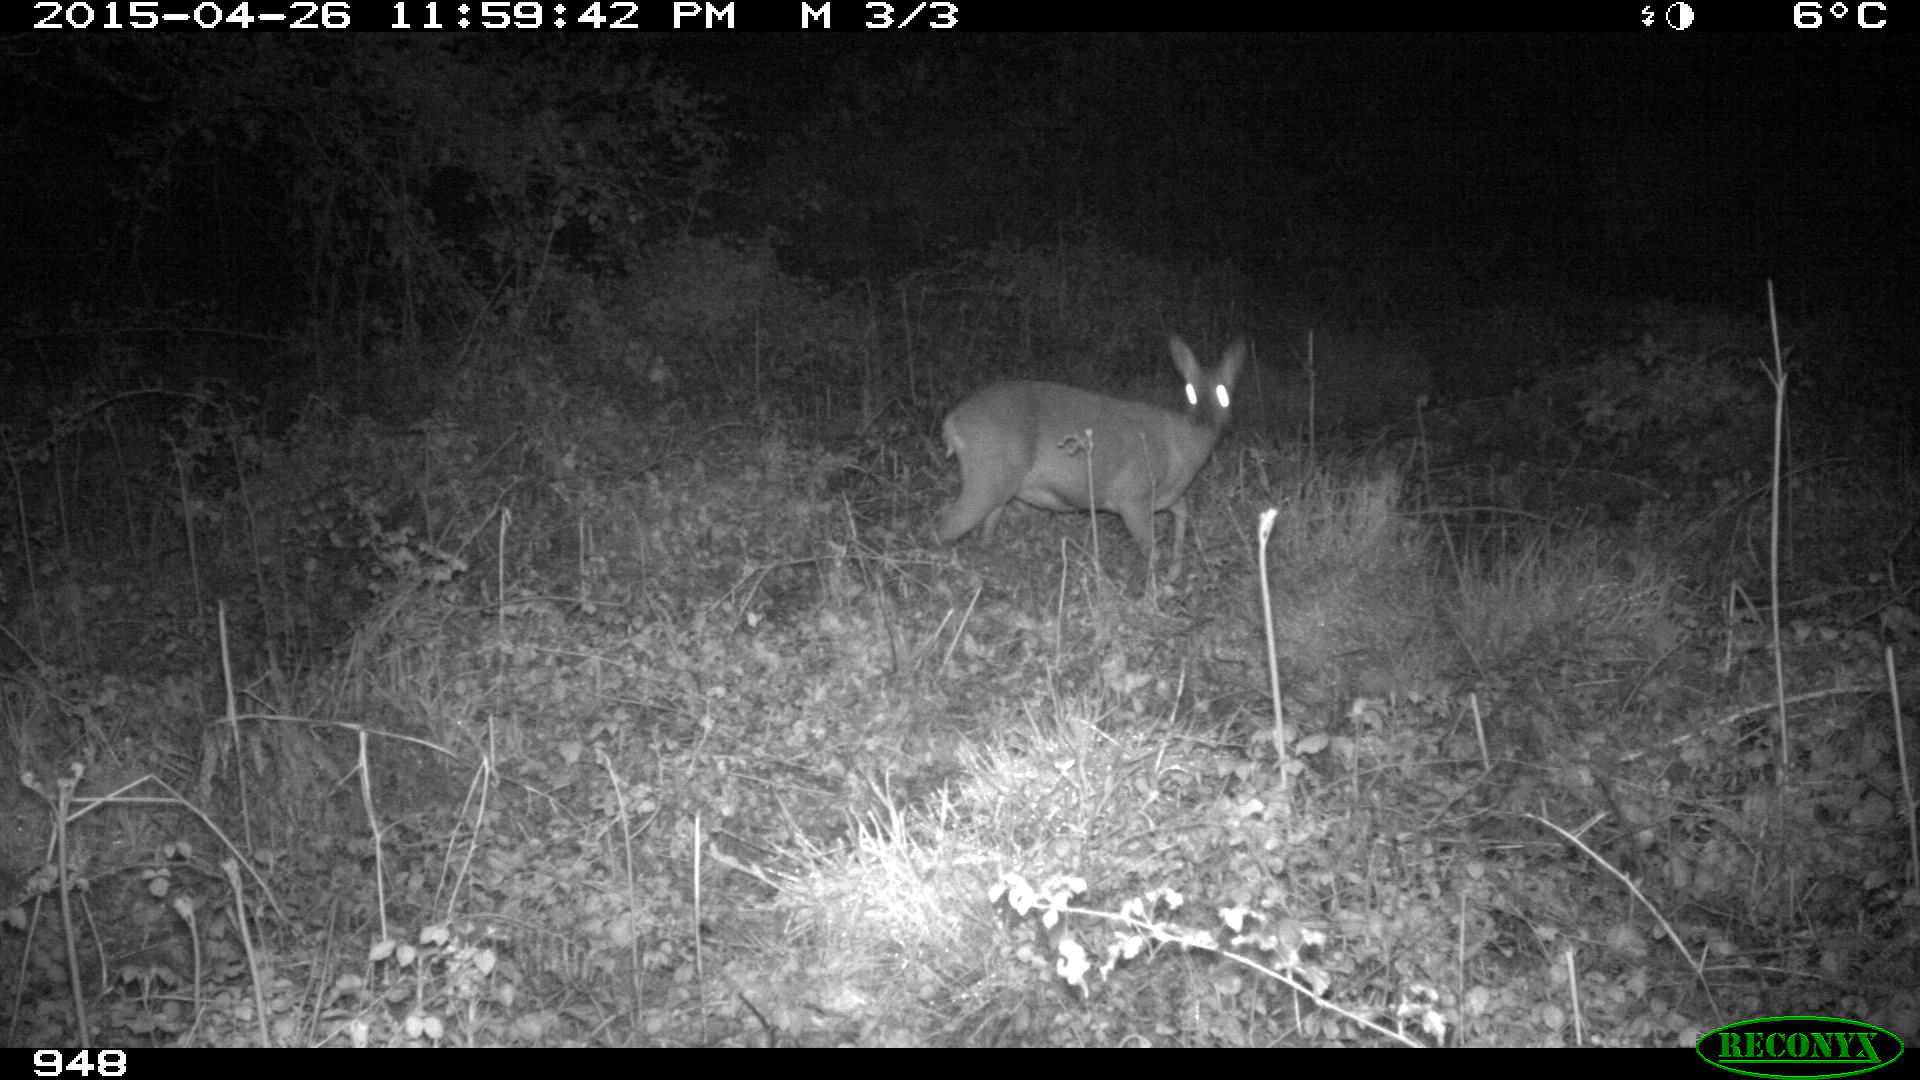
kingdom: Animalia
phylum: Chordata
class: Mammalia
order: Artiodactyla
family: Cervidae
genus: Capreolus
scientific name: Capreolus capreolus
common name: Western roe deer
